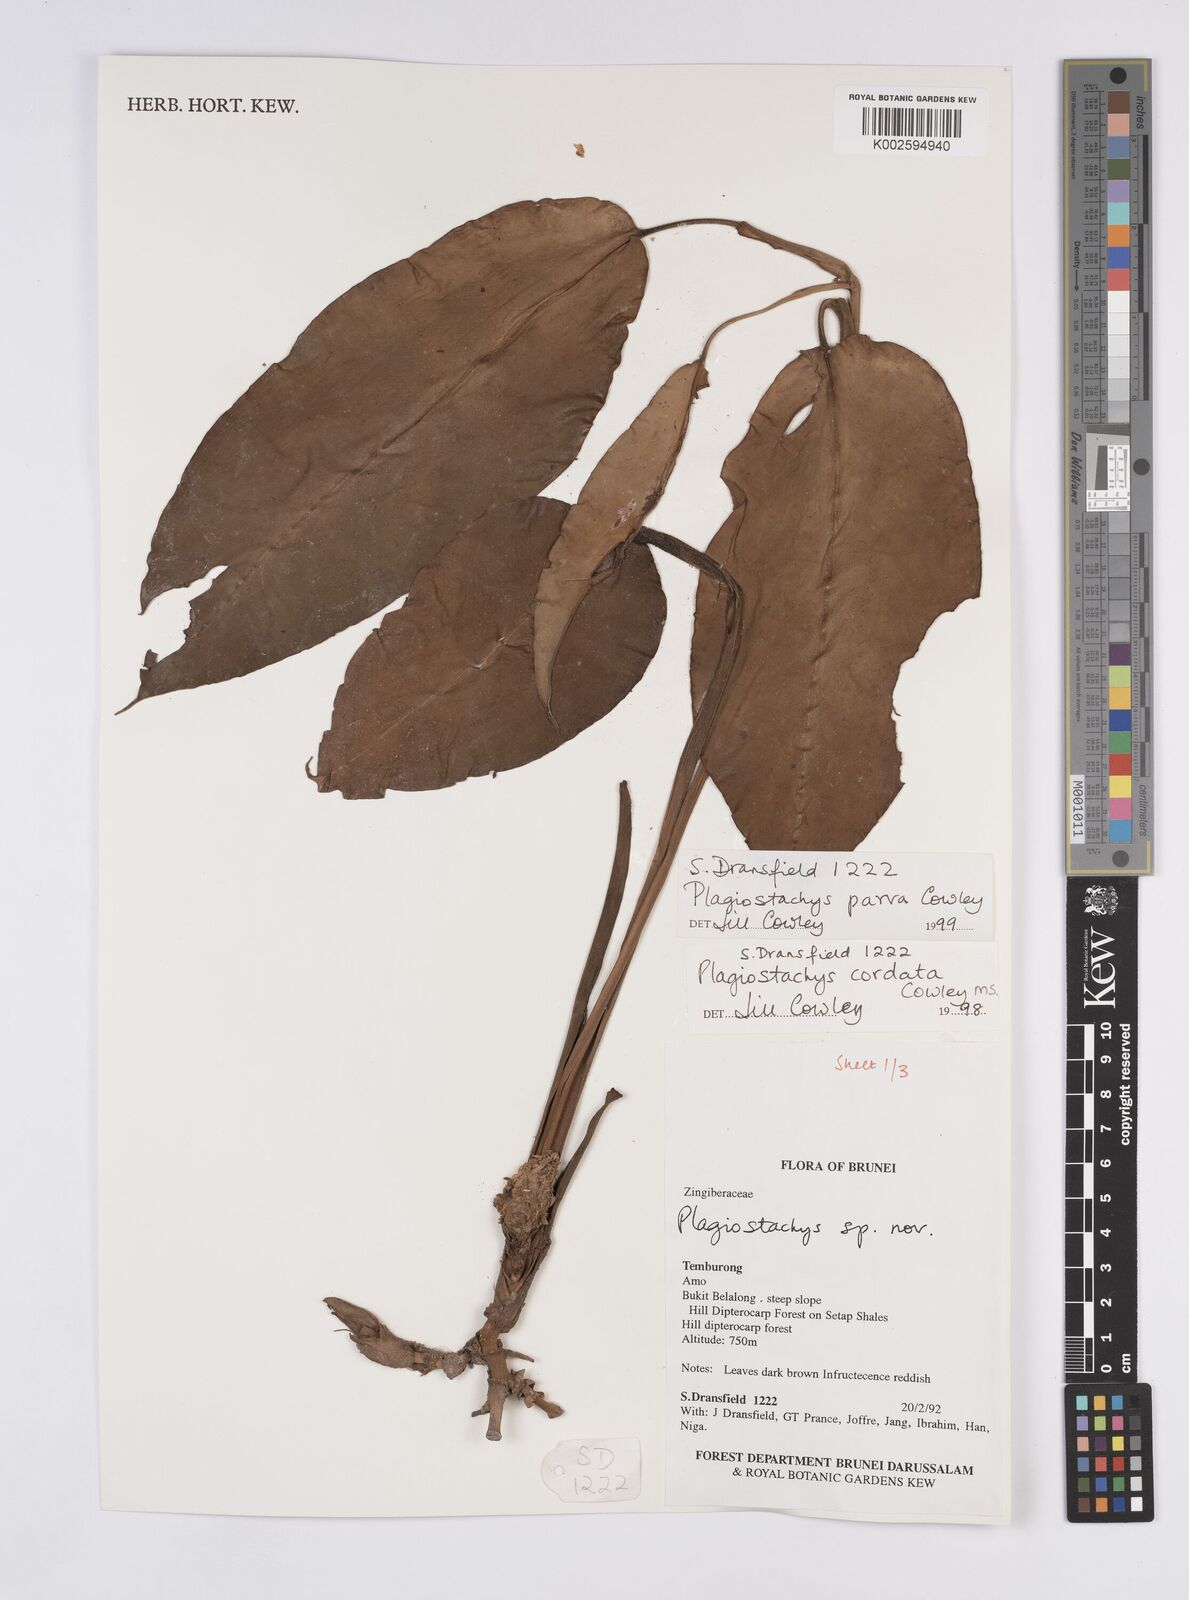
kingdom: Plantae
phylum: Tracheophyta
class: Liliopsida
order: Zingiberales
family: Zingiberaceae
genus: Plagiostachys
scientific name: Plagiostachys parva
